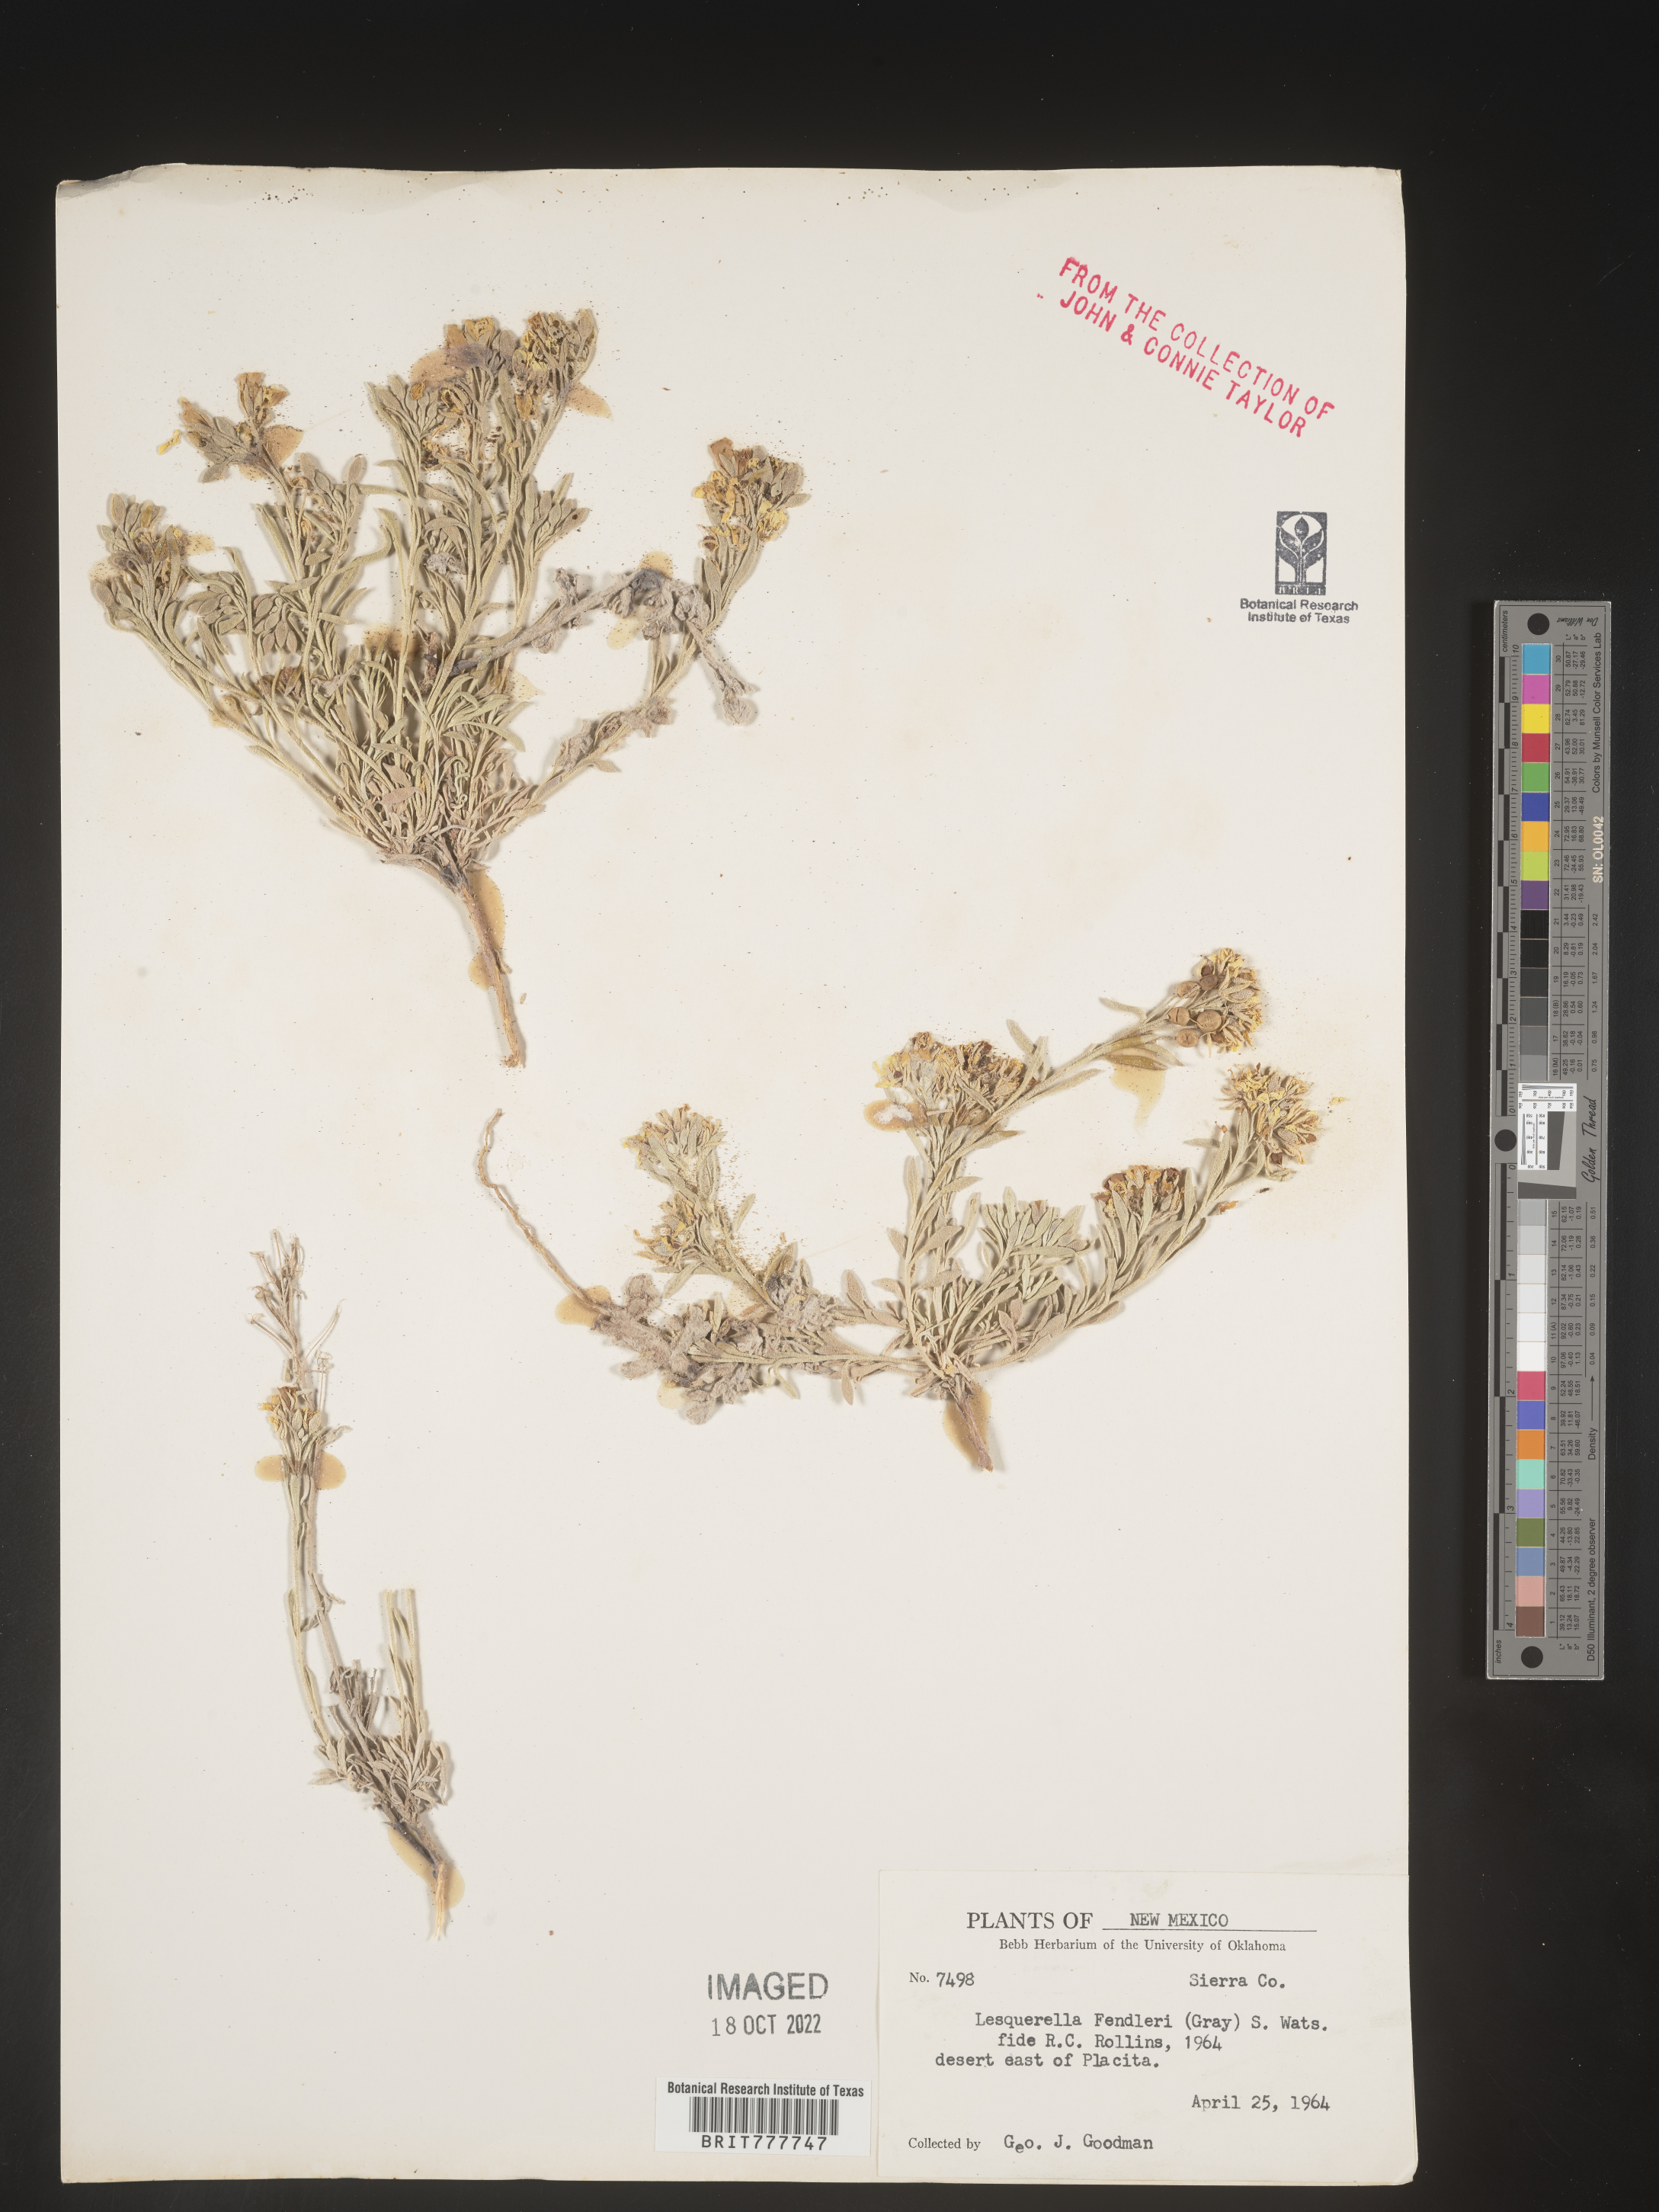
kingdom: Plantae
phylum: Tracheophyta
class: Magnoliopsida
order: Brassicales
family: Brassicaceae
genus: Physaria
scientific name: Physaria fendleri
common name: Fendler's bladderpod
